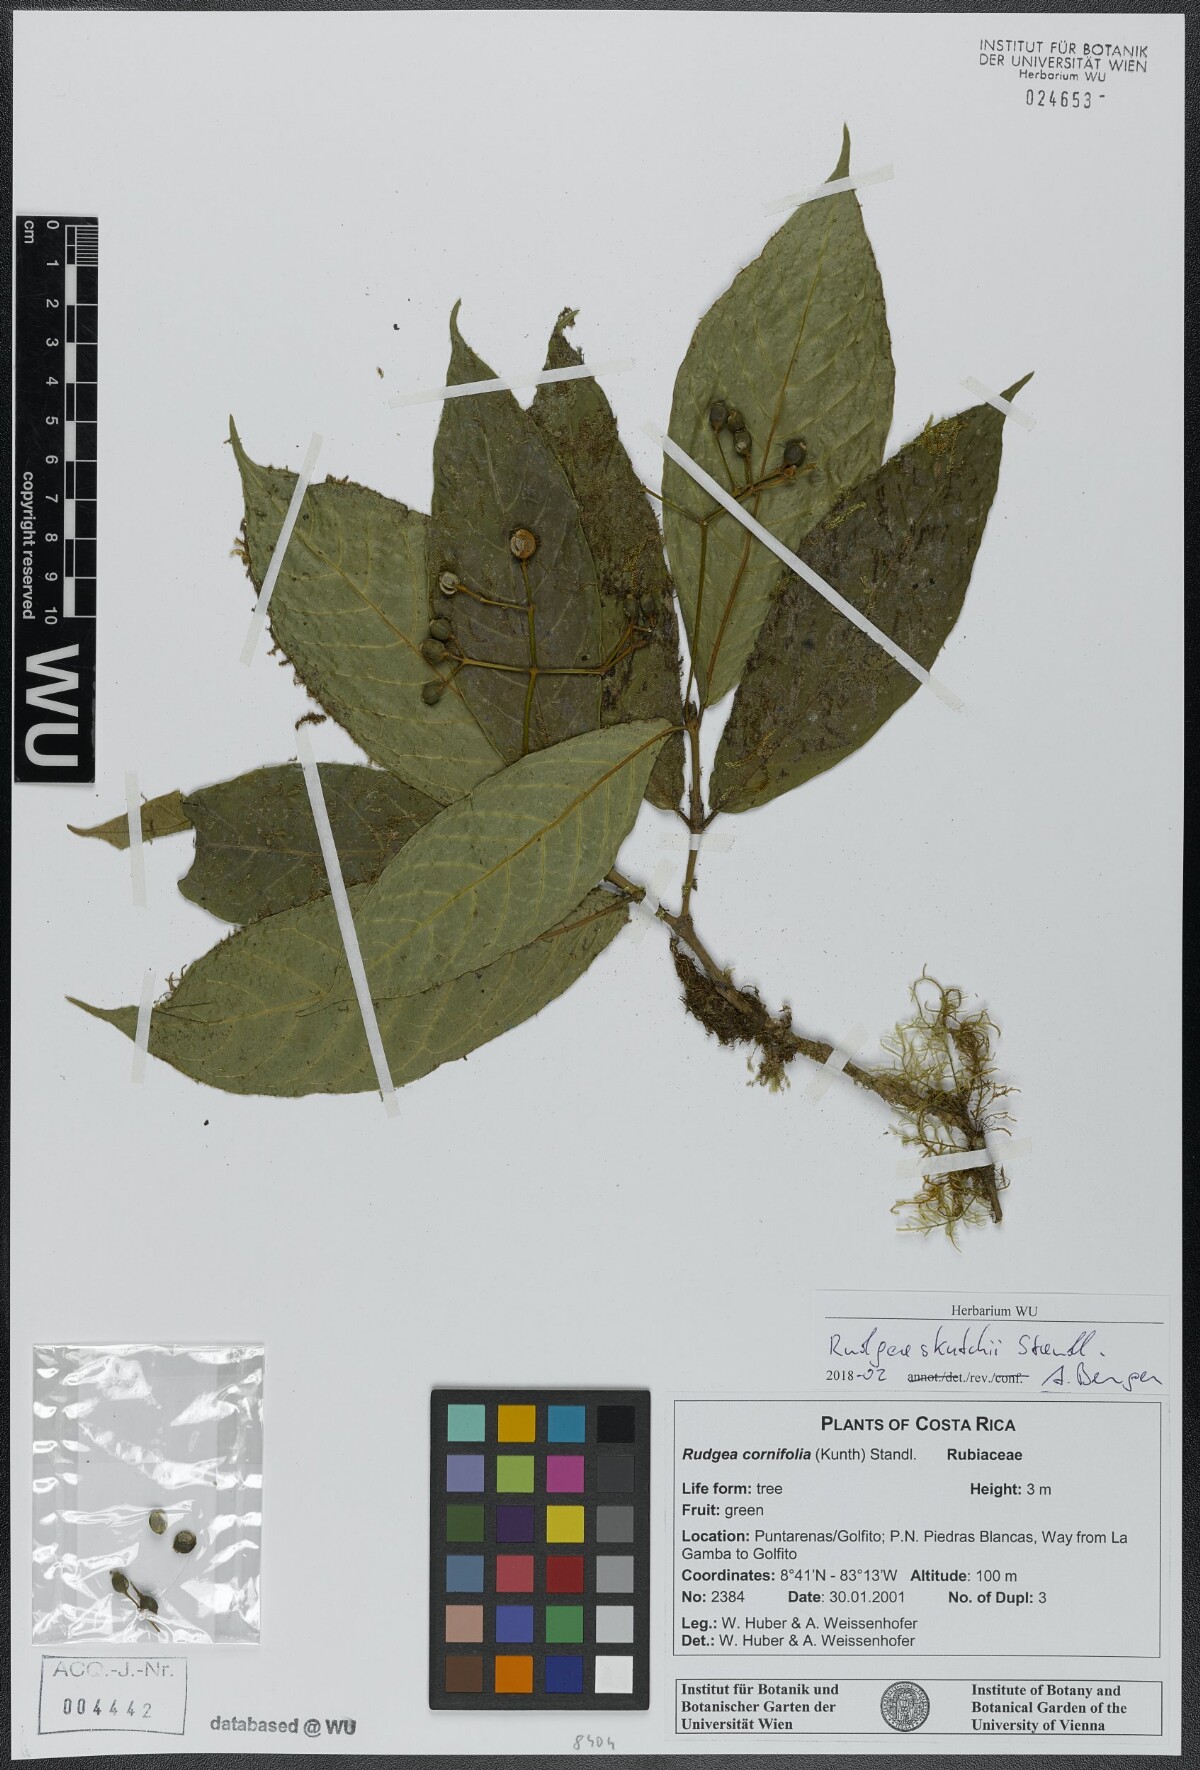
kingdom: Plantae
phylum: Tracheophyta
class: Magnoliopsida
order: Gentianales
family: Rubiaceae
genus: Rudgea
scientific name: Rudgea skutchii
